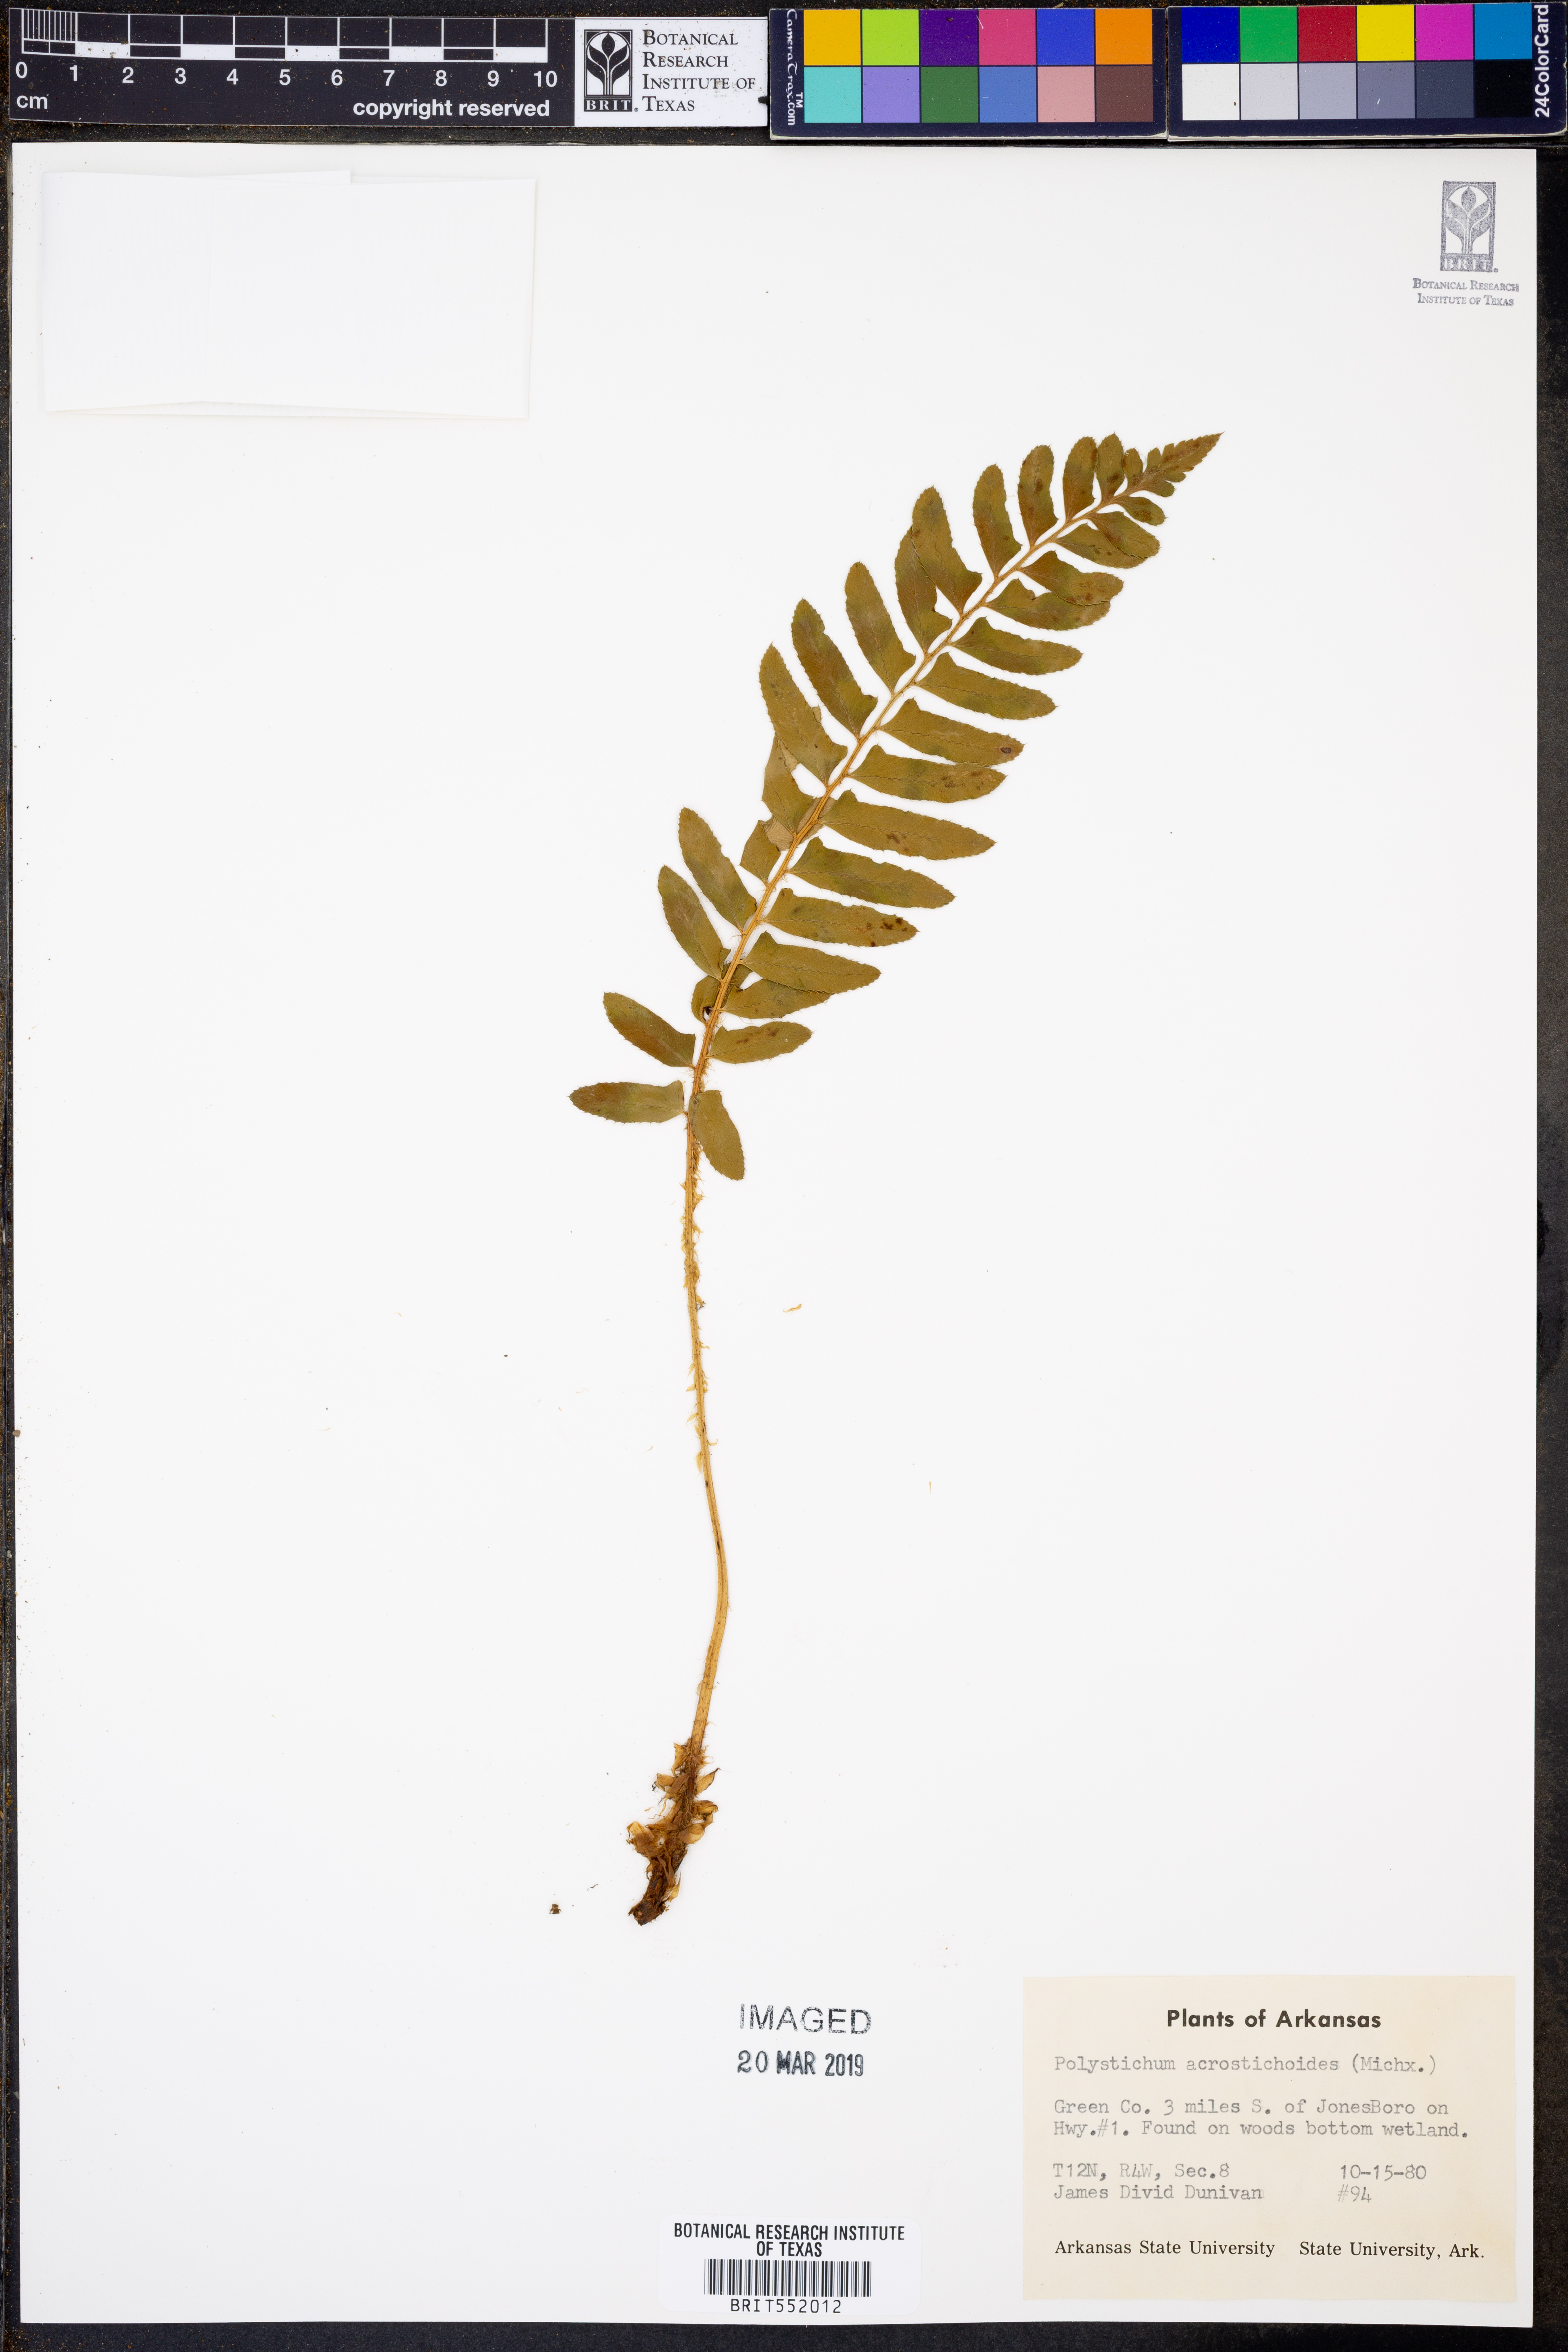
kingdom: Plantae
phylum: Tracheophyta
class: Polypodiopsida
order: Polypodiales
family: Dryopteridaceae
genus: Polystichum
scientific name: Polystichum acrostichoides
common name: Christmas fern
